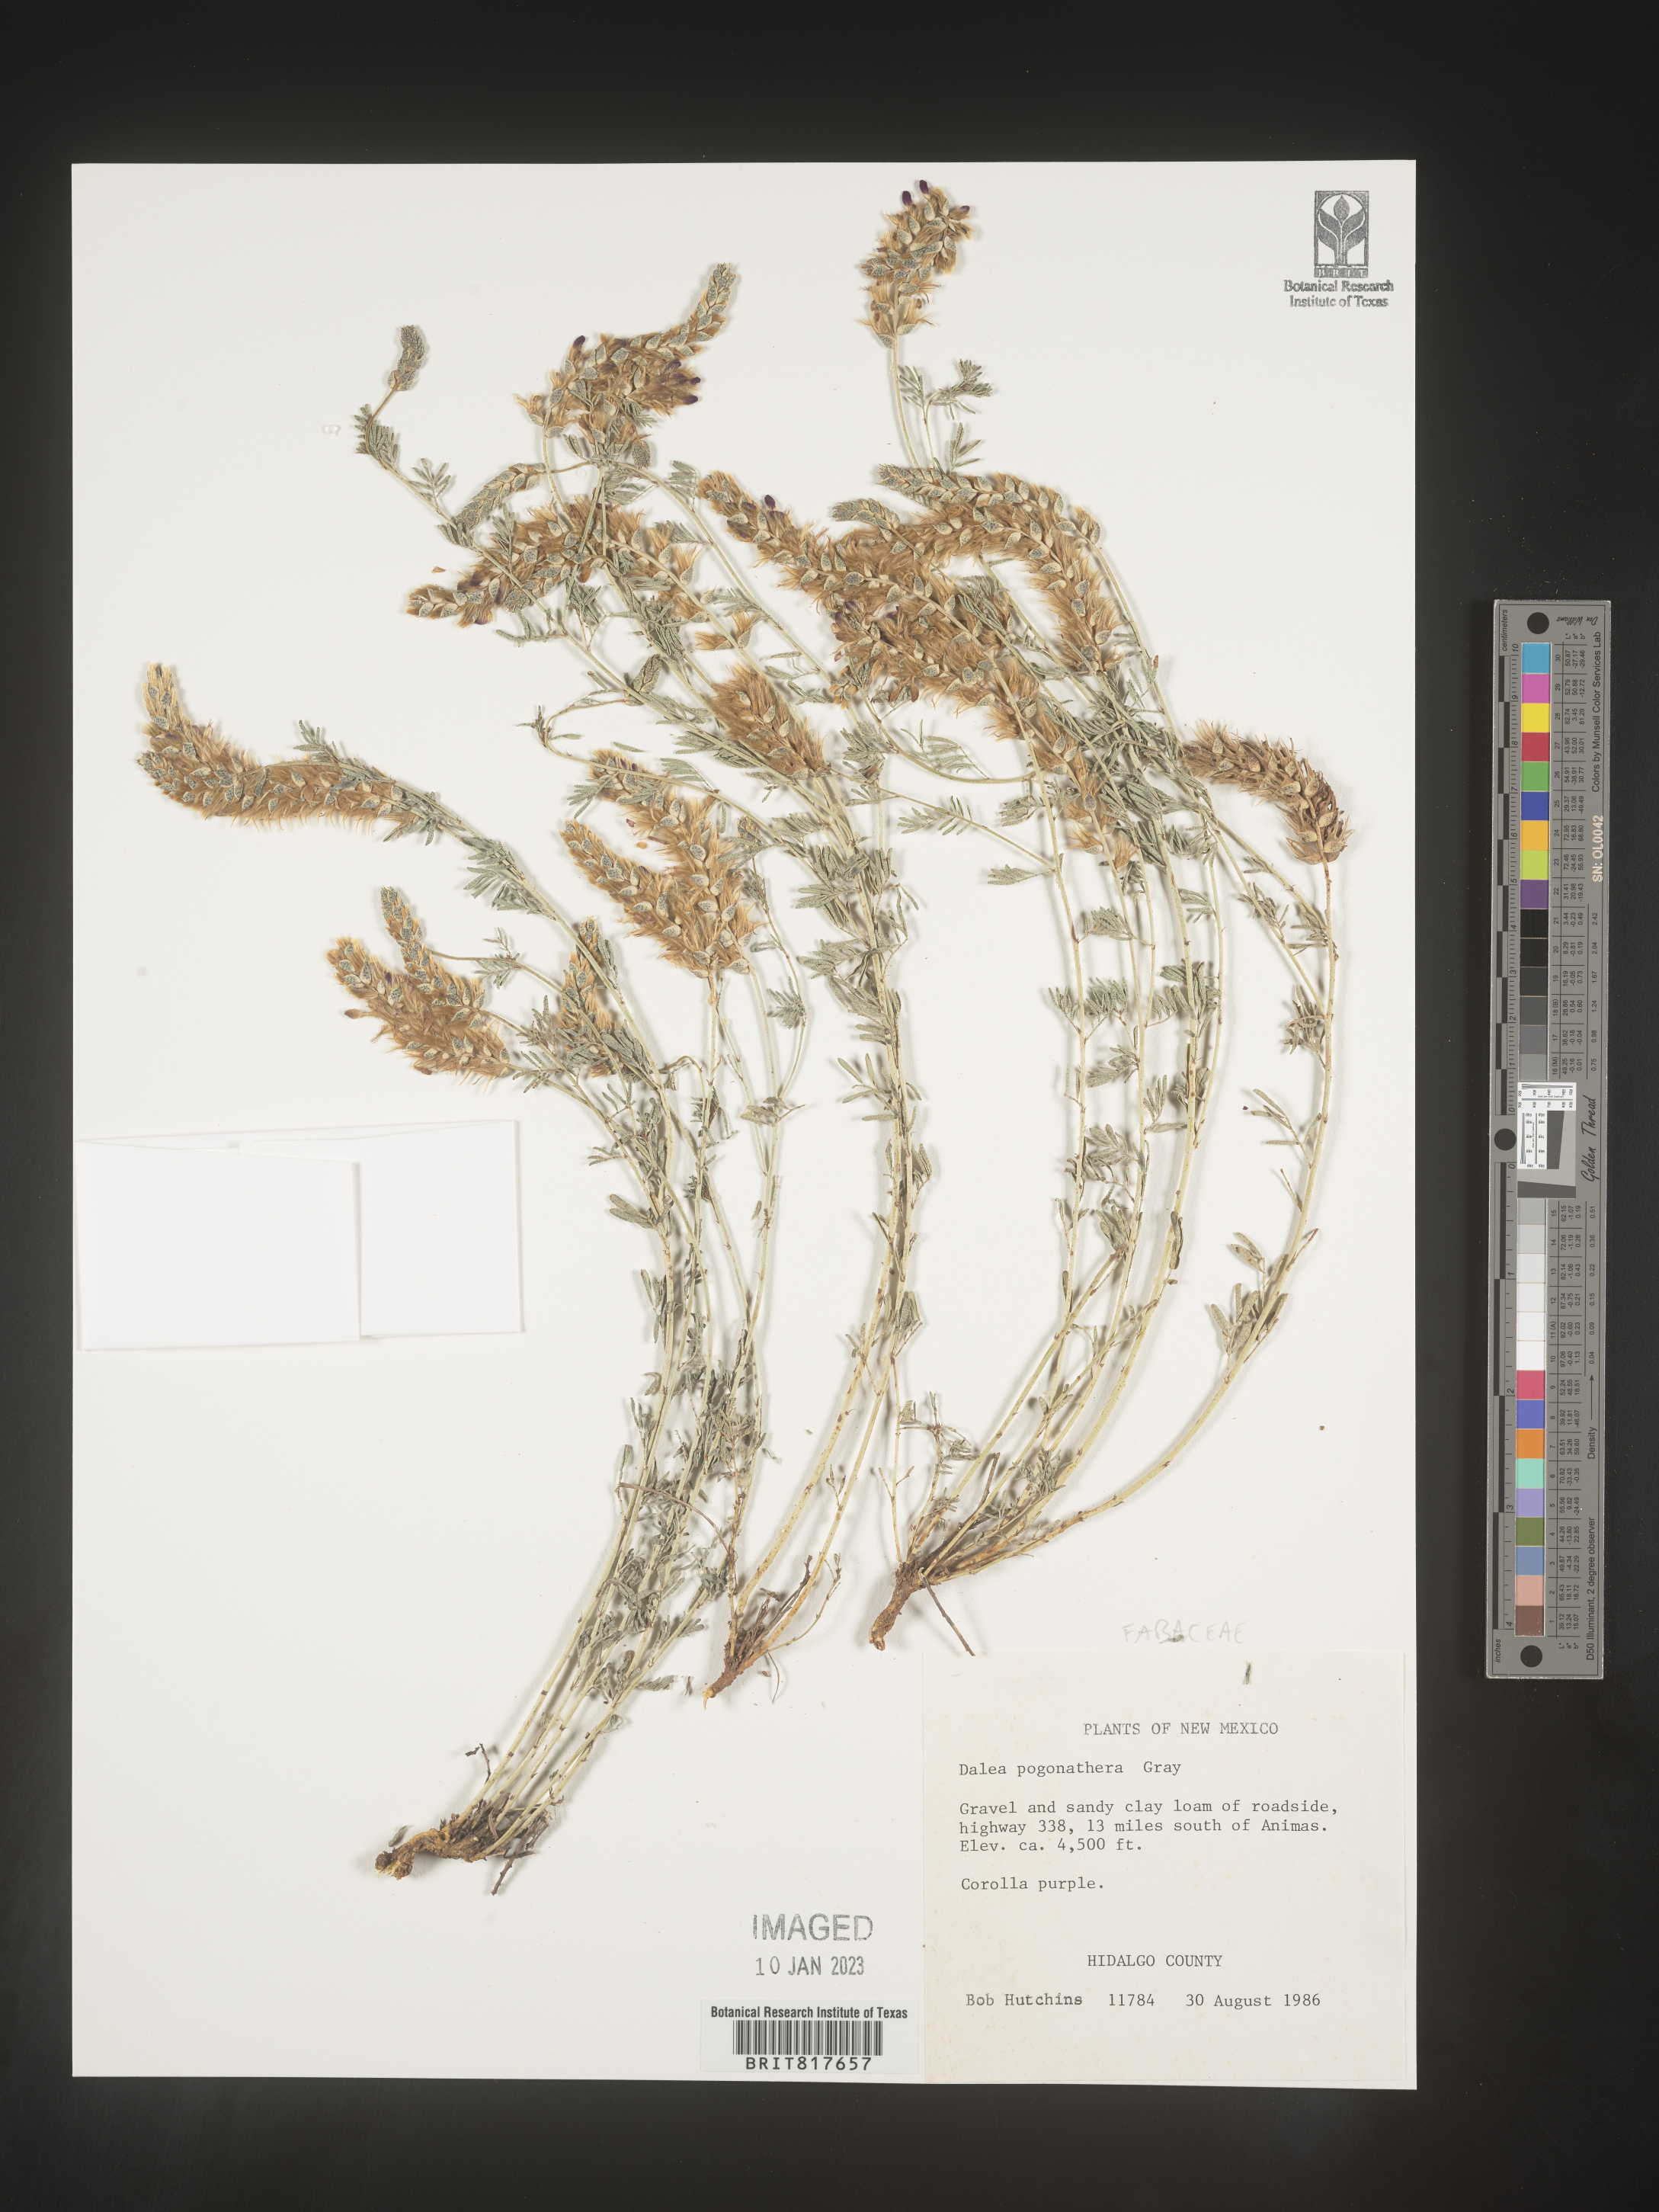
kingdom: Plantae
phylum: Tracheophyta
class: Magnoliopsida
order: Fabales
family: Fabaceae
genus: Dalea
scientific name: Dalea pogonathera
